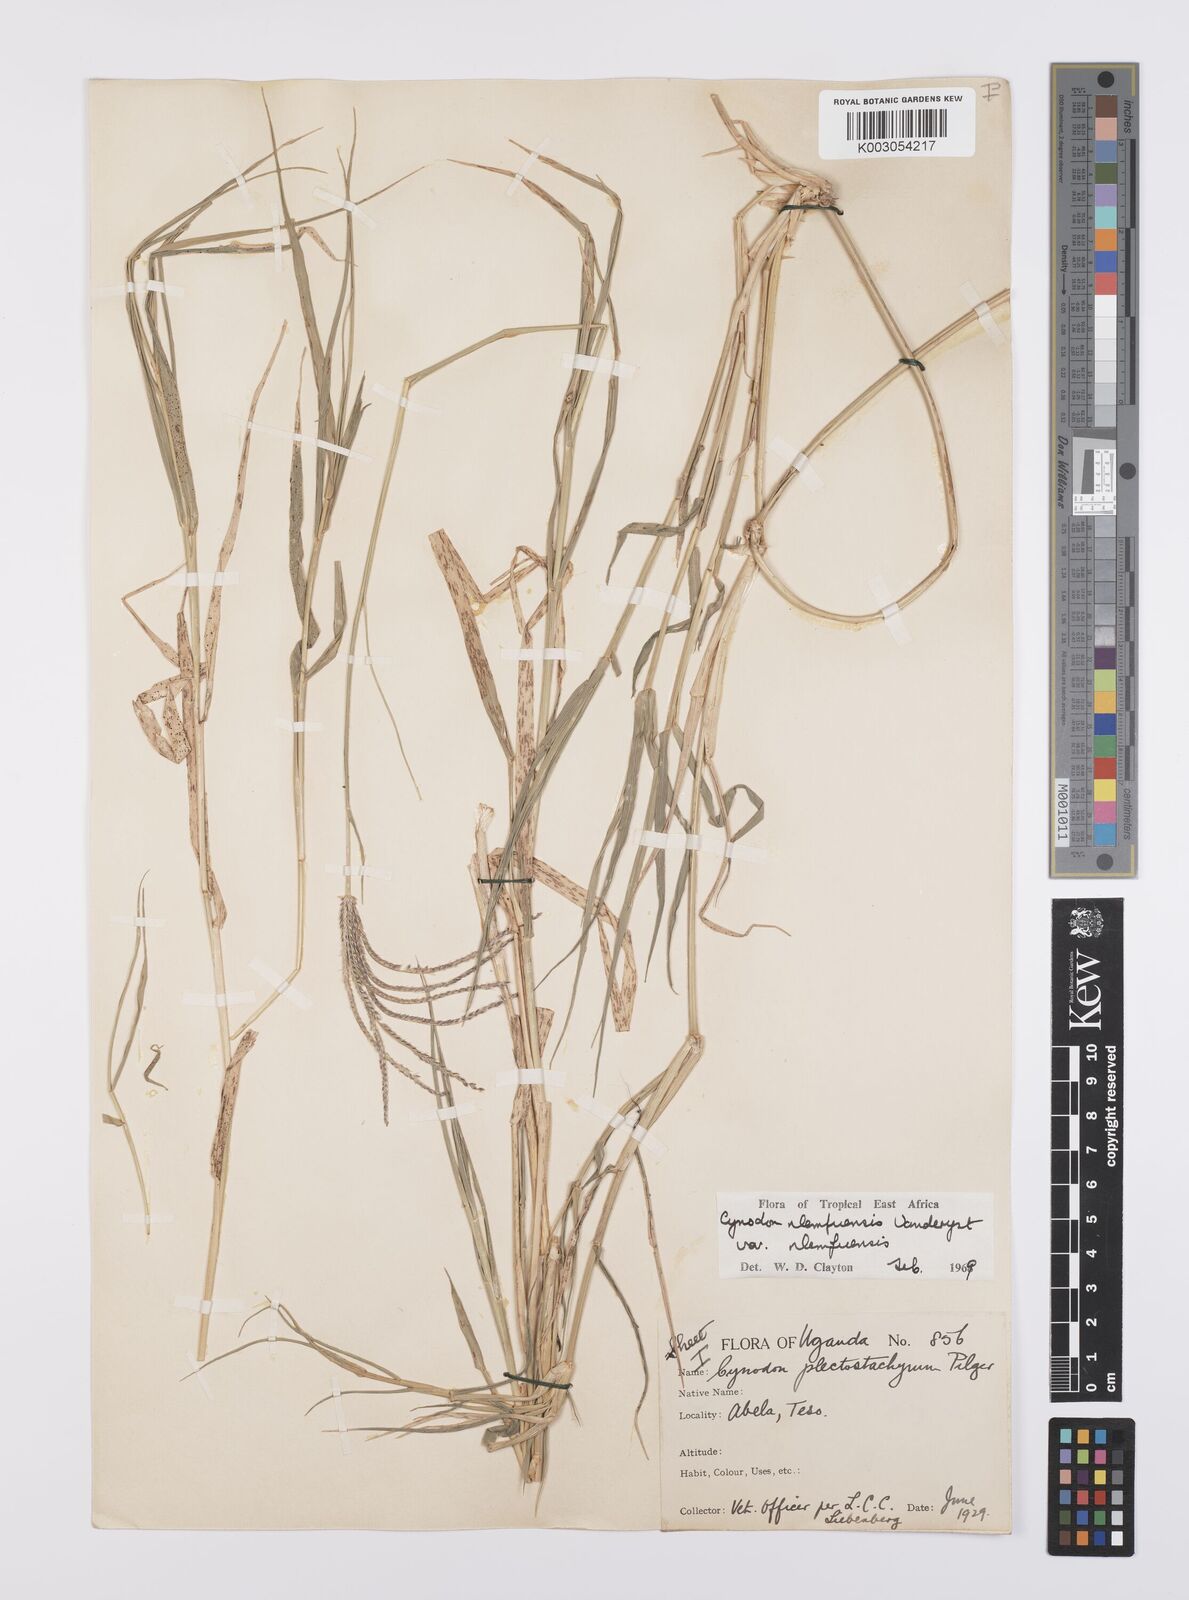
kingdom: Plantae
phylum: Tracheophyta
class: Liliopsida
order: Poales
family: Poaceae
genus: Cynodon
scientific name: Cynodon nlemfuensis
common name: African bermudagrass
